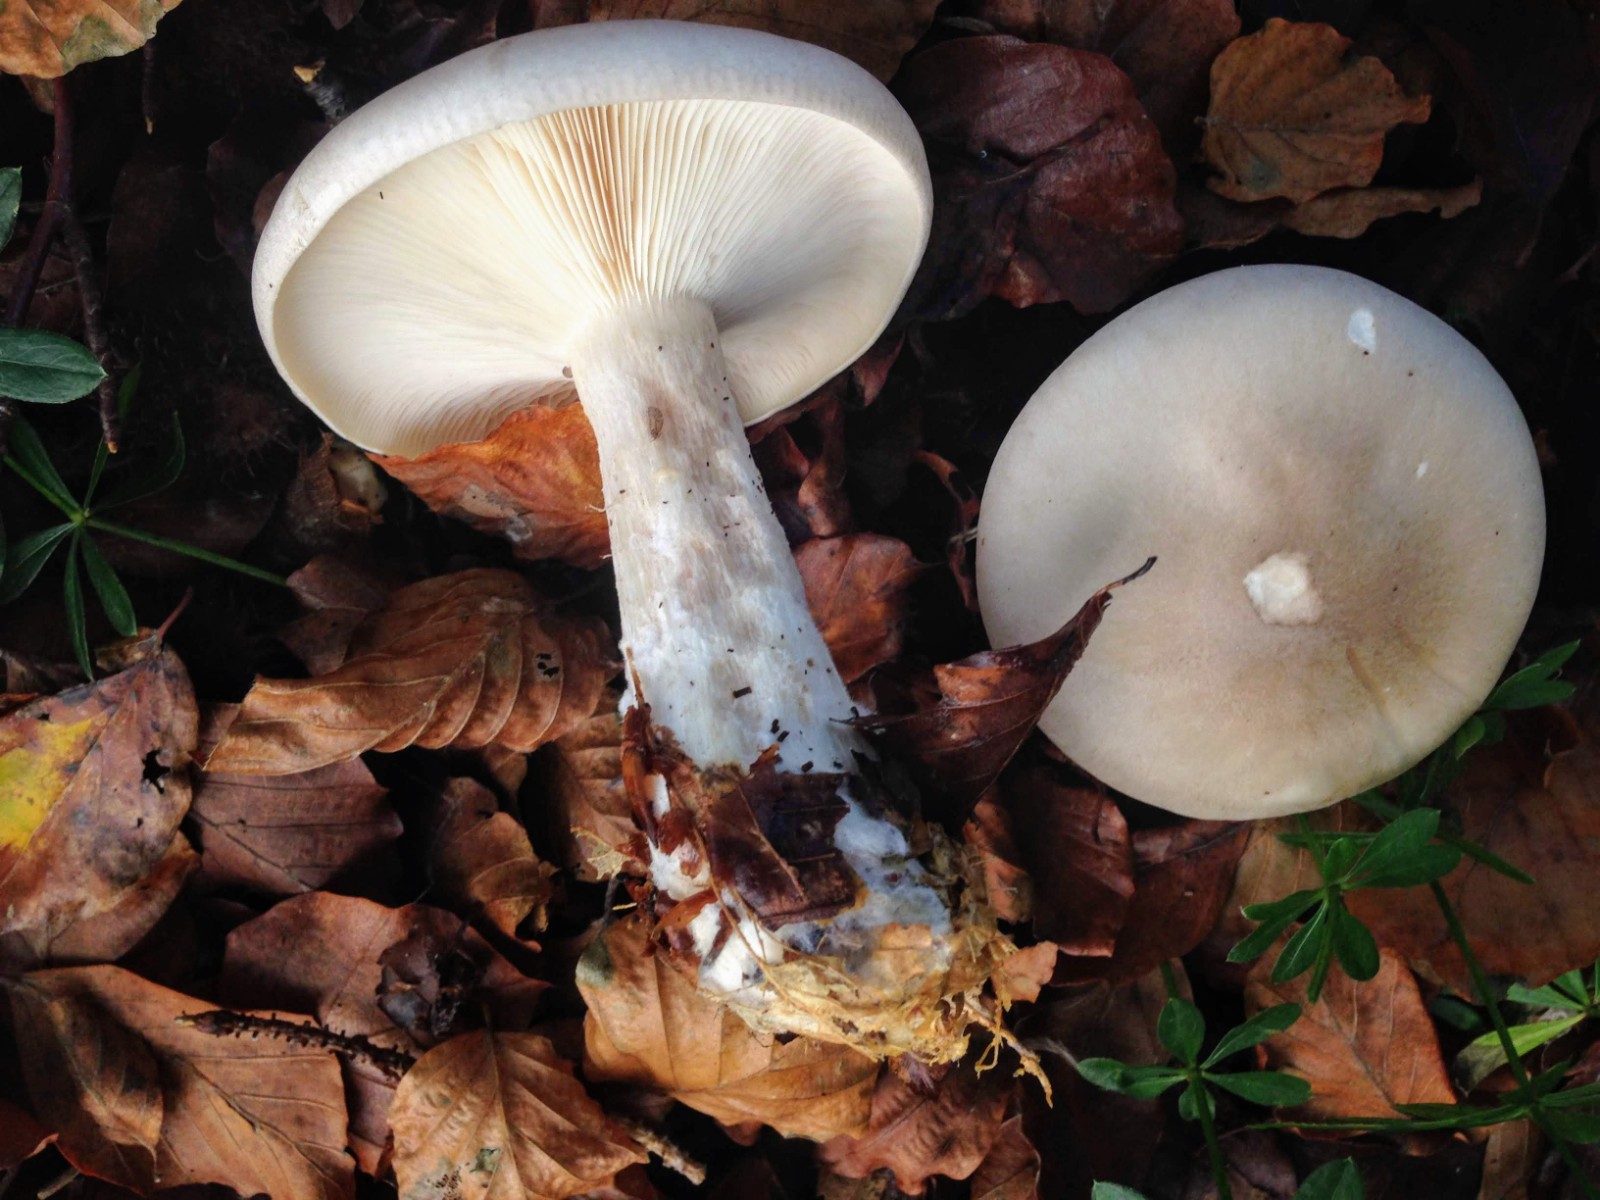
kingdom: Fungi
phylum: Basidiomycota
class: Agaricomycetes
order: Agaricales
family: Tricholomataceae
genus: Clitocybe
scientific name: Clitocybe nebularis
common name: tåge-tragthat
